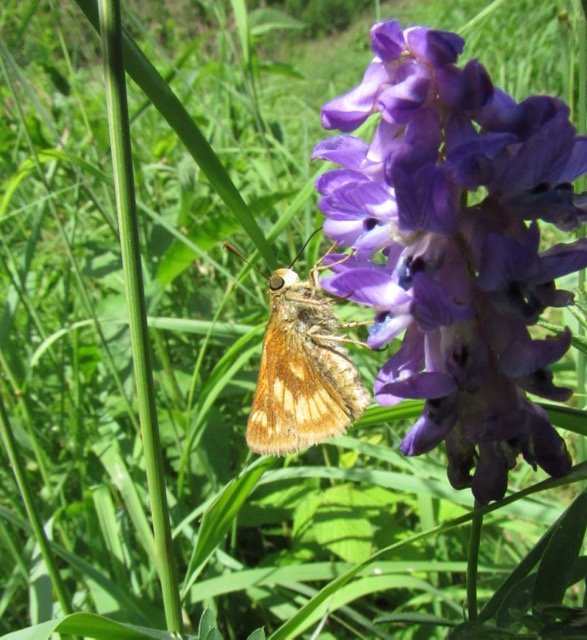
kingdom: Animalia
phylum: Arthropoda
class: Insecta
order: Lepidoptera
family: Hesperiidae
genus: Polites
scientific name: Polites
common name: Long Dash Skipper
